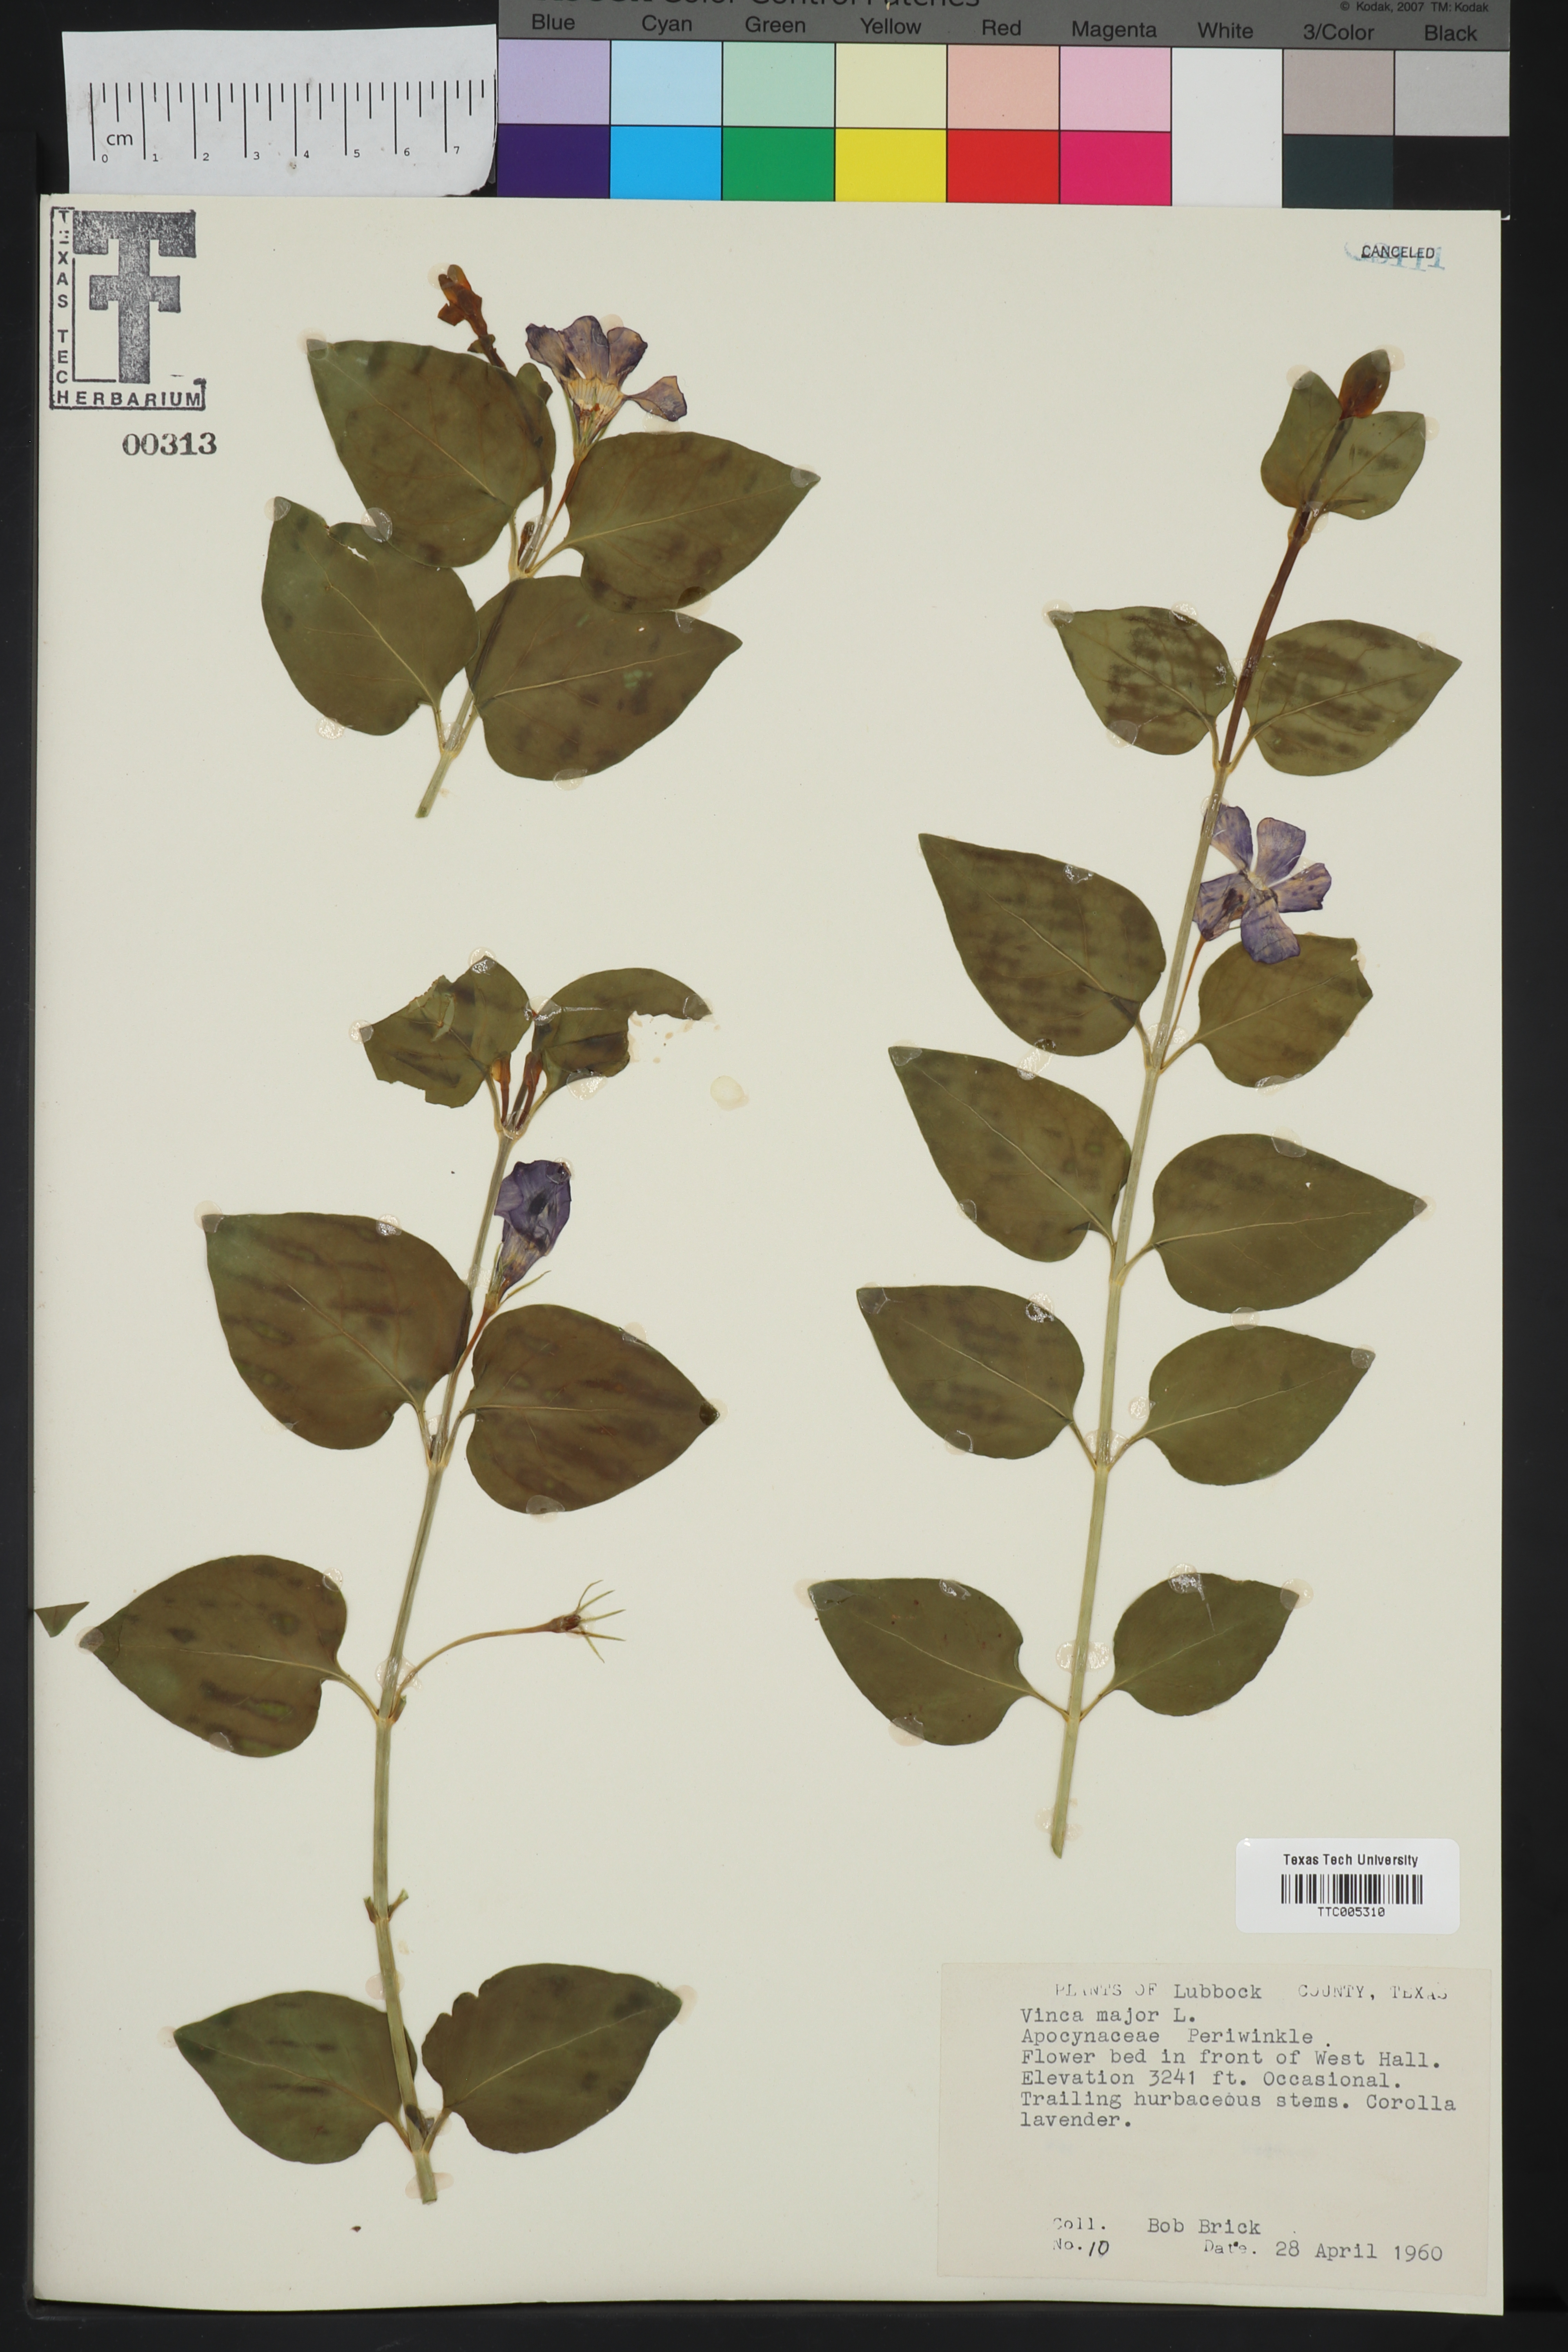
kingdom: Plantae
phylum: Tracheophyta
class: Magnoliopsida
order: Gentianales
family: Apocynaceae
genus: Vinca
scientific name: Vinca major
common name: Greater periwinkle
